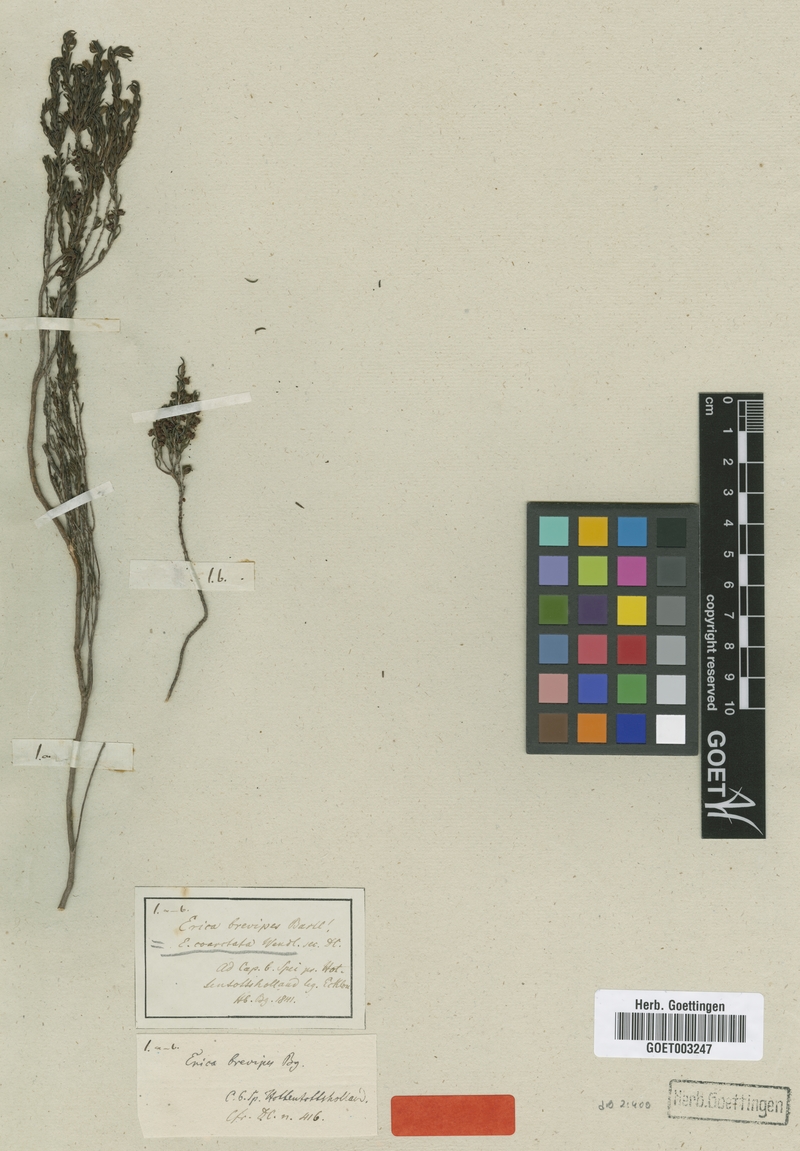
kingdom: Plantae
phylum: Tracheophyta
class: Magnoliopsida
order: Ericales
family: Ericaceae
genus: Erica
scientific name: Erica coarctata
